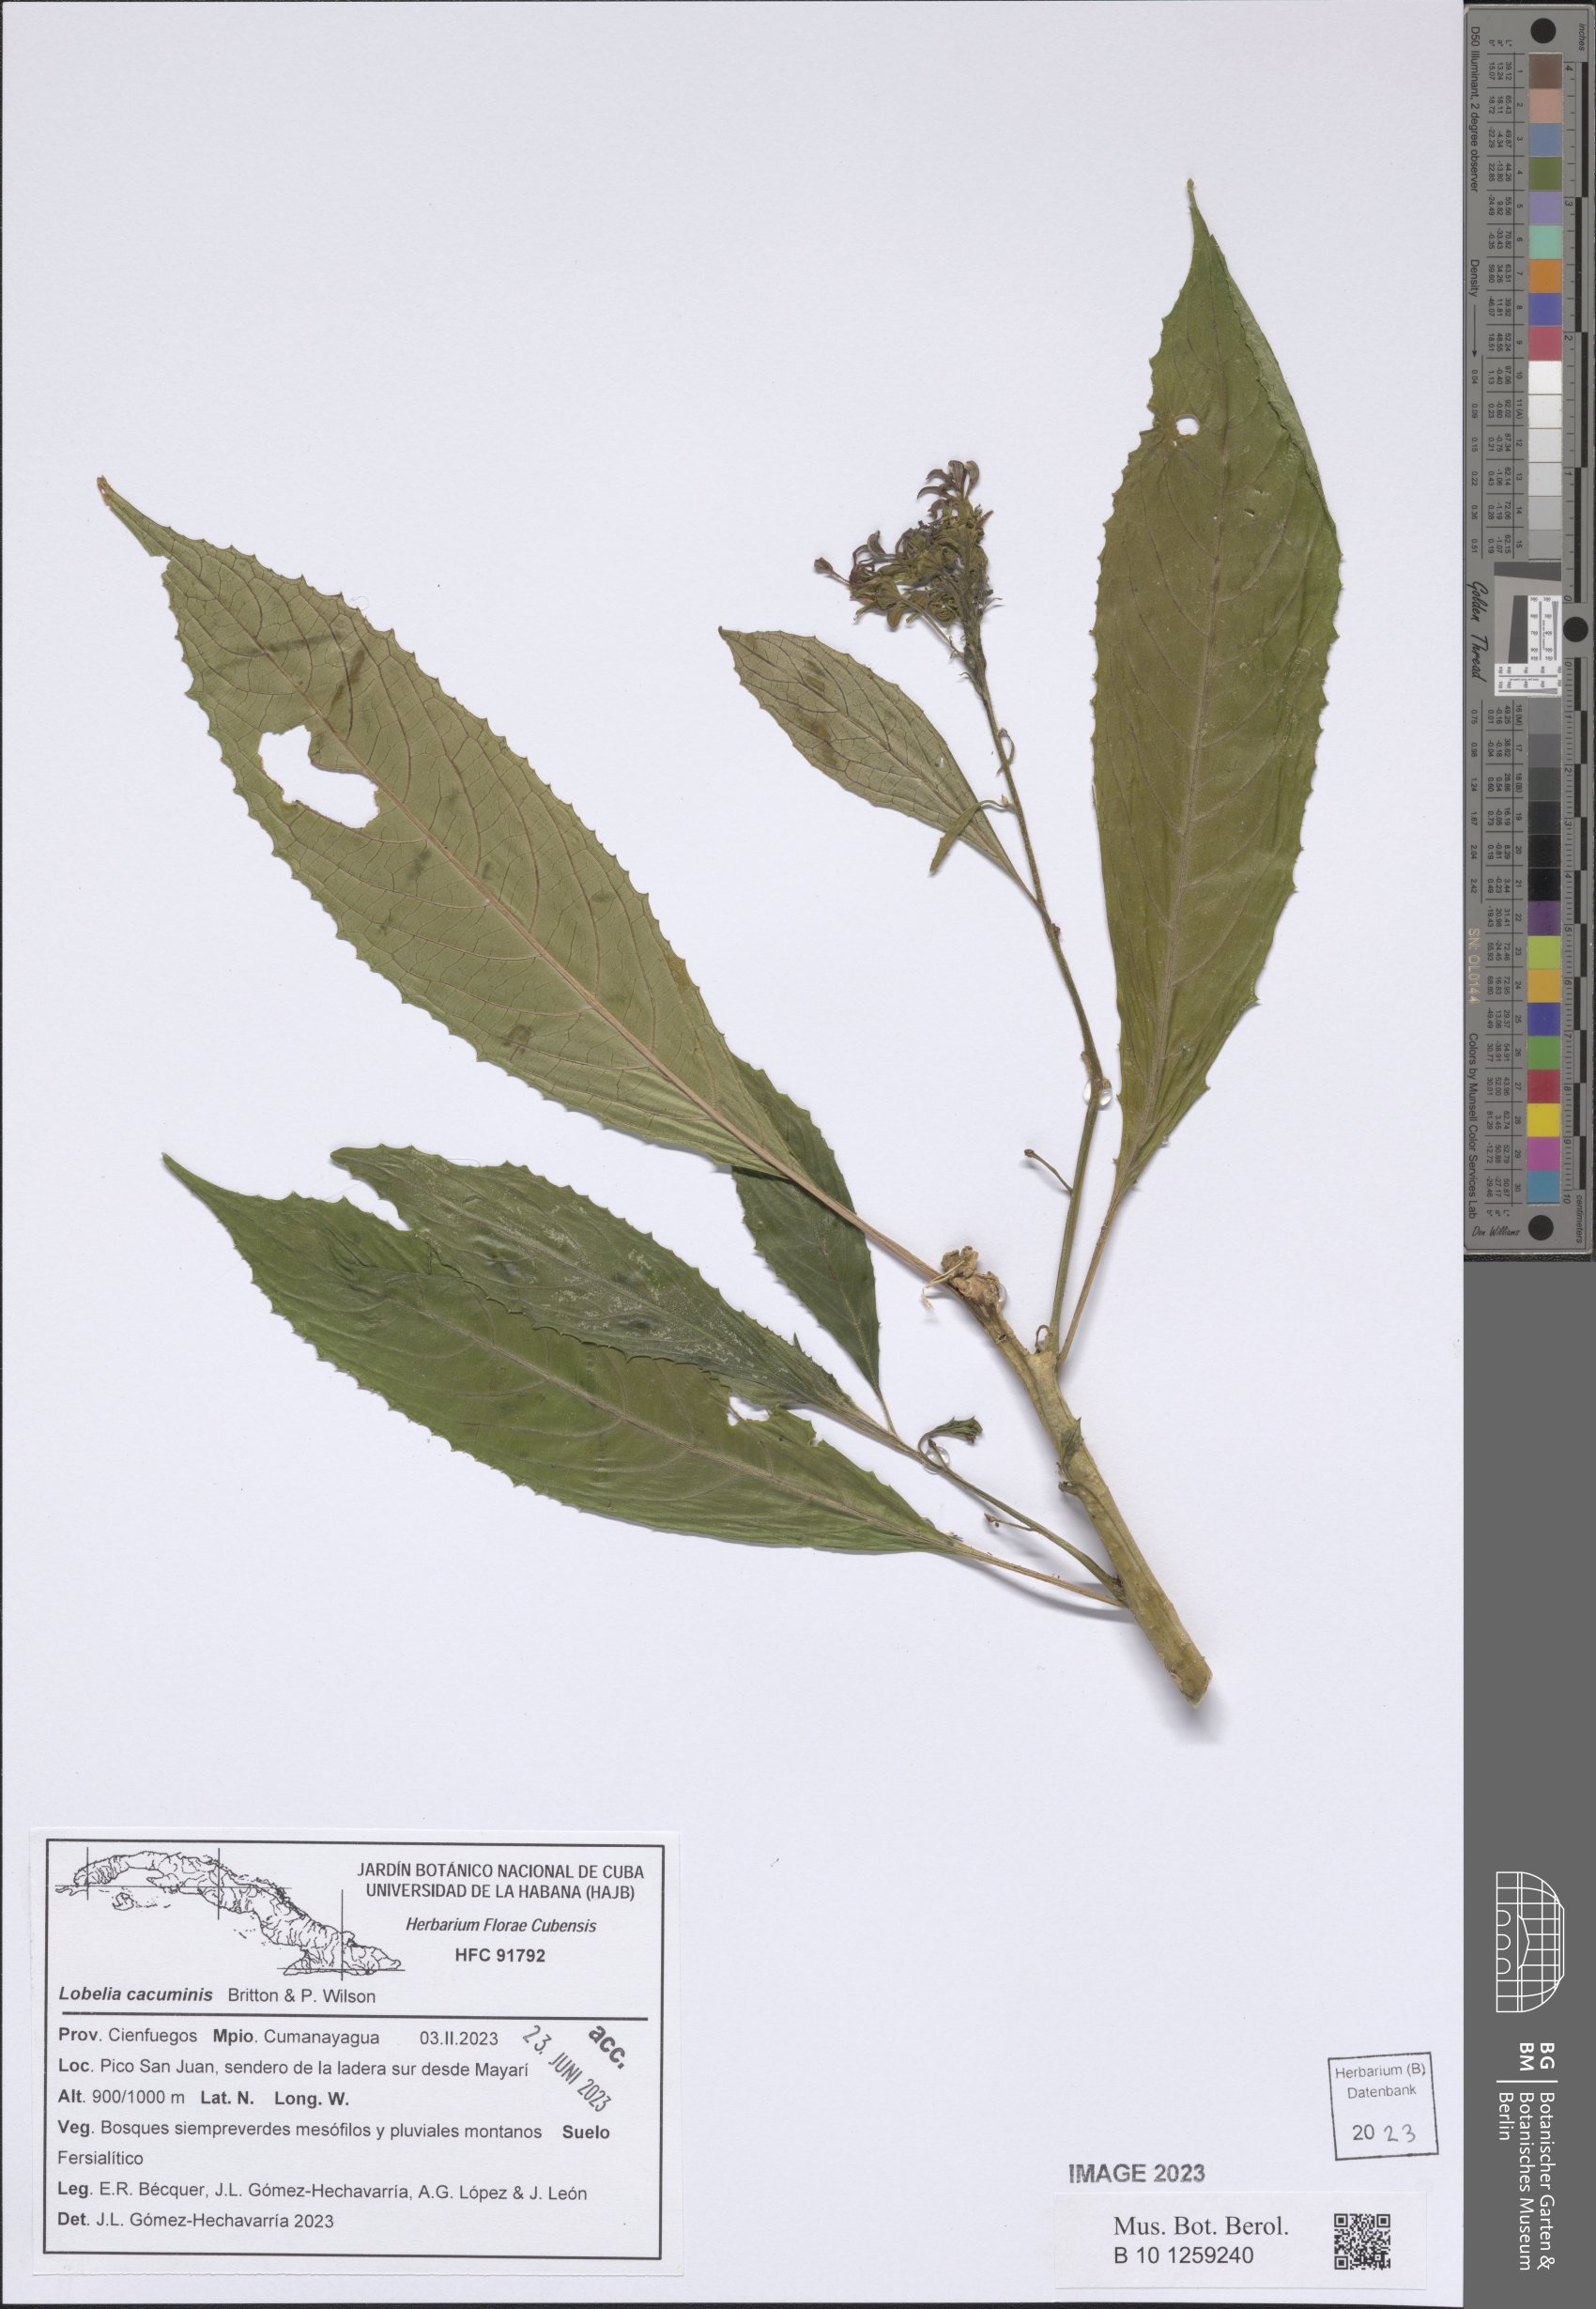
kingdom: Plantae
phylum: Tracheophyta
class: Magnoliopsida
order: Asterales
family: Campanulaceae
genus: Lobelia
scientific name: Lobelia cacuminis
